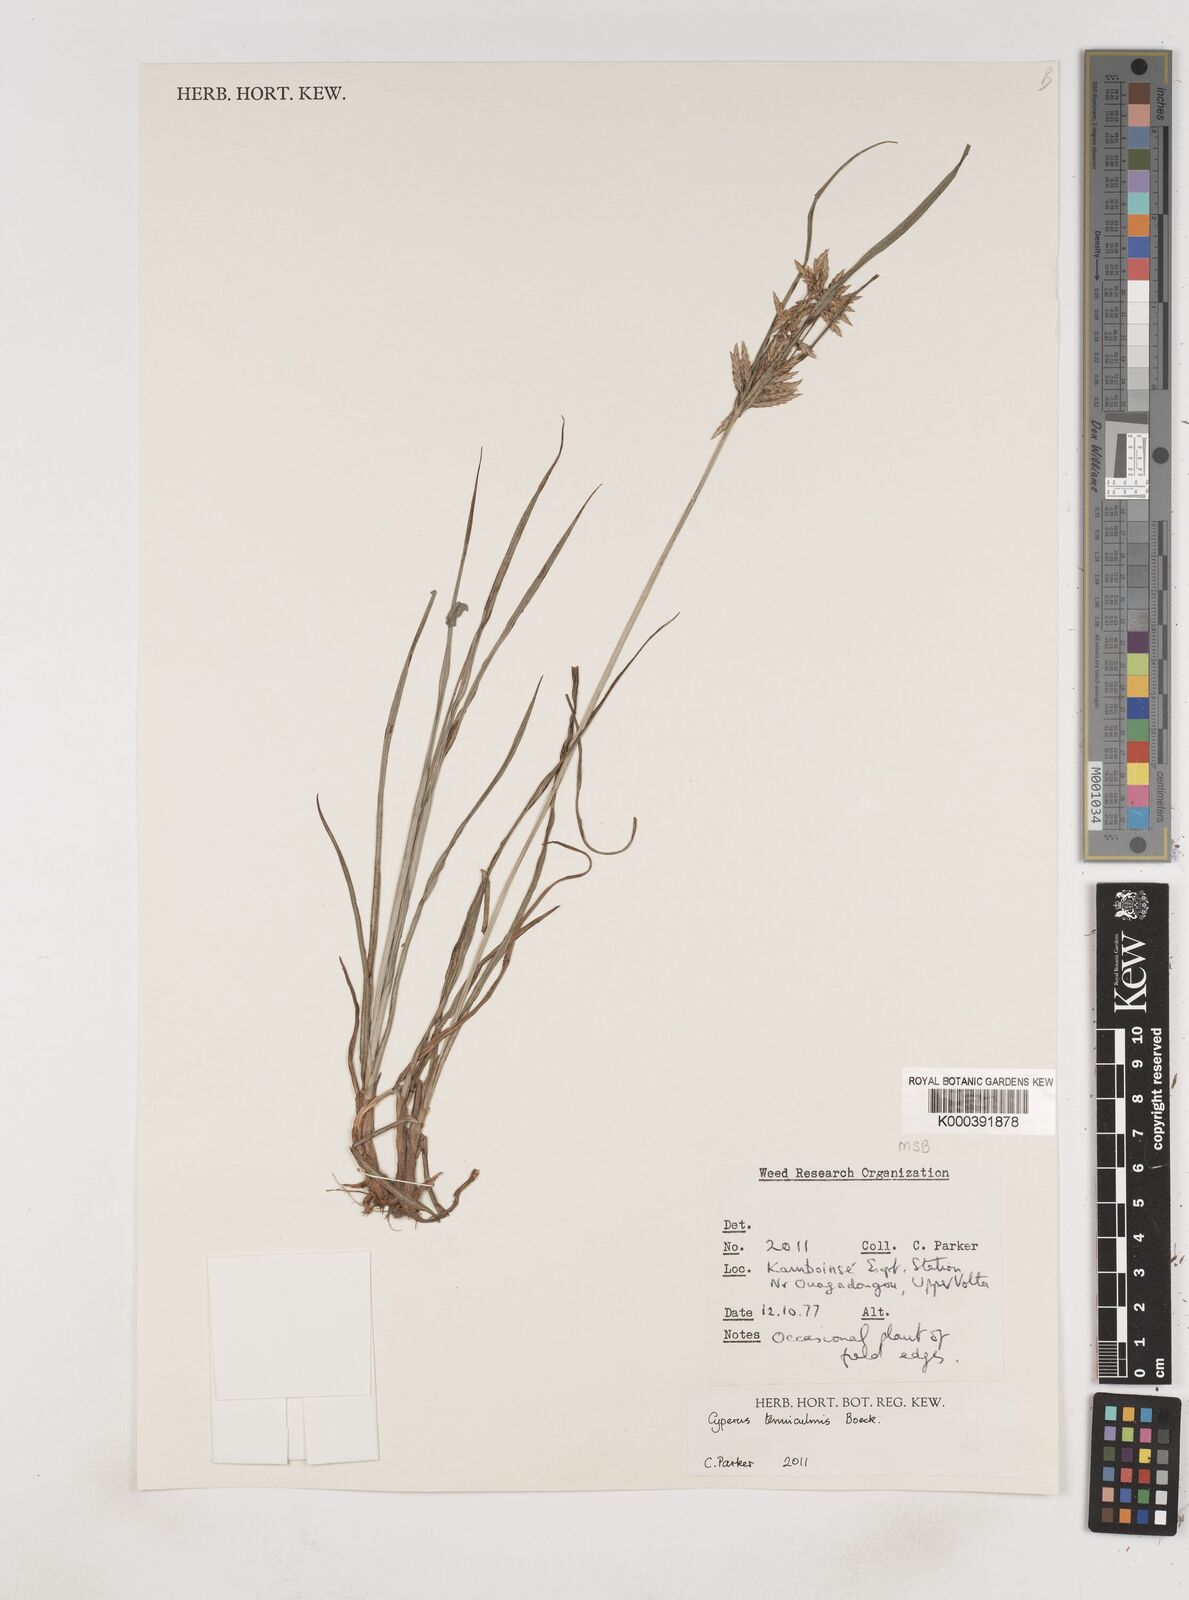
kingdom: Plantae
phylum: Tracheophyta
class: Liliopsida
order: Poales
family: Cyperaceae
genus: Cyperus
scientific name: Cyperus tenuiculmis
